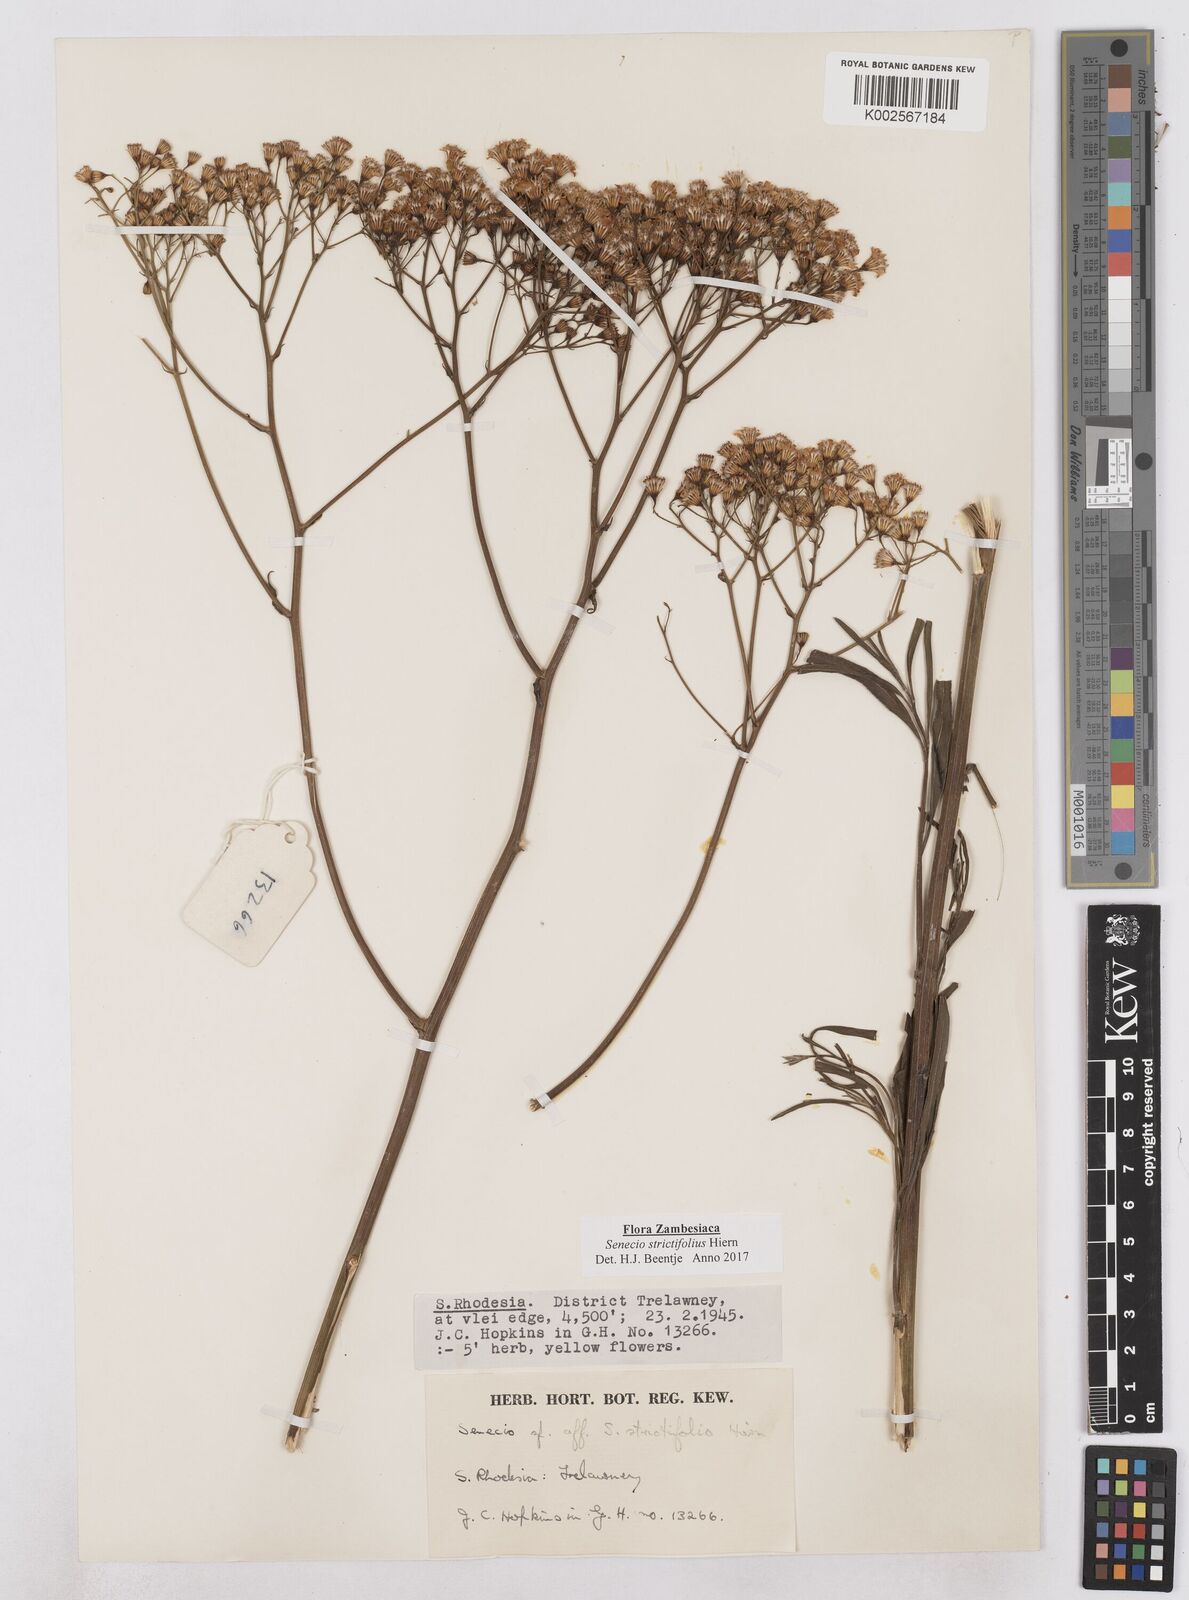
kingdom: Plantae
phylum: Tracheophyta
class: Magnoliopsida
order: Asterales
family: Asteraceae
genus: Senecio
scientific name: Senecio strictifolius
